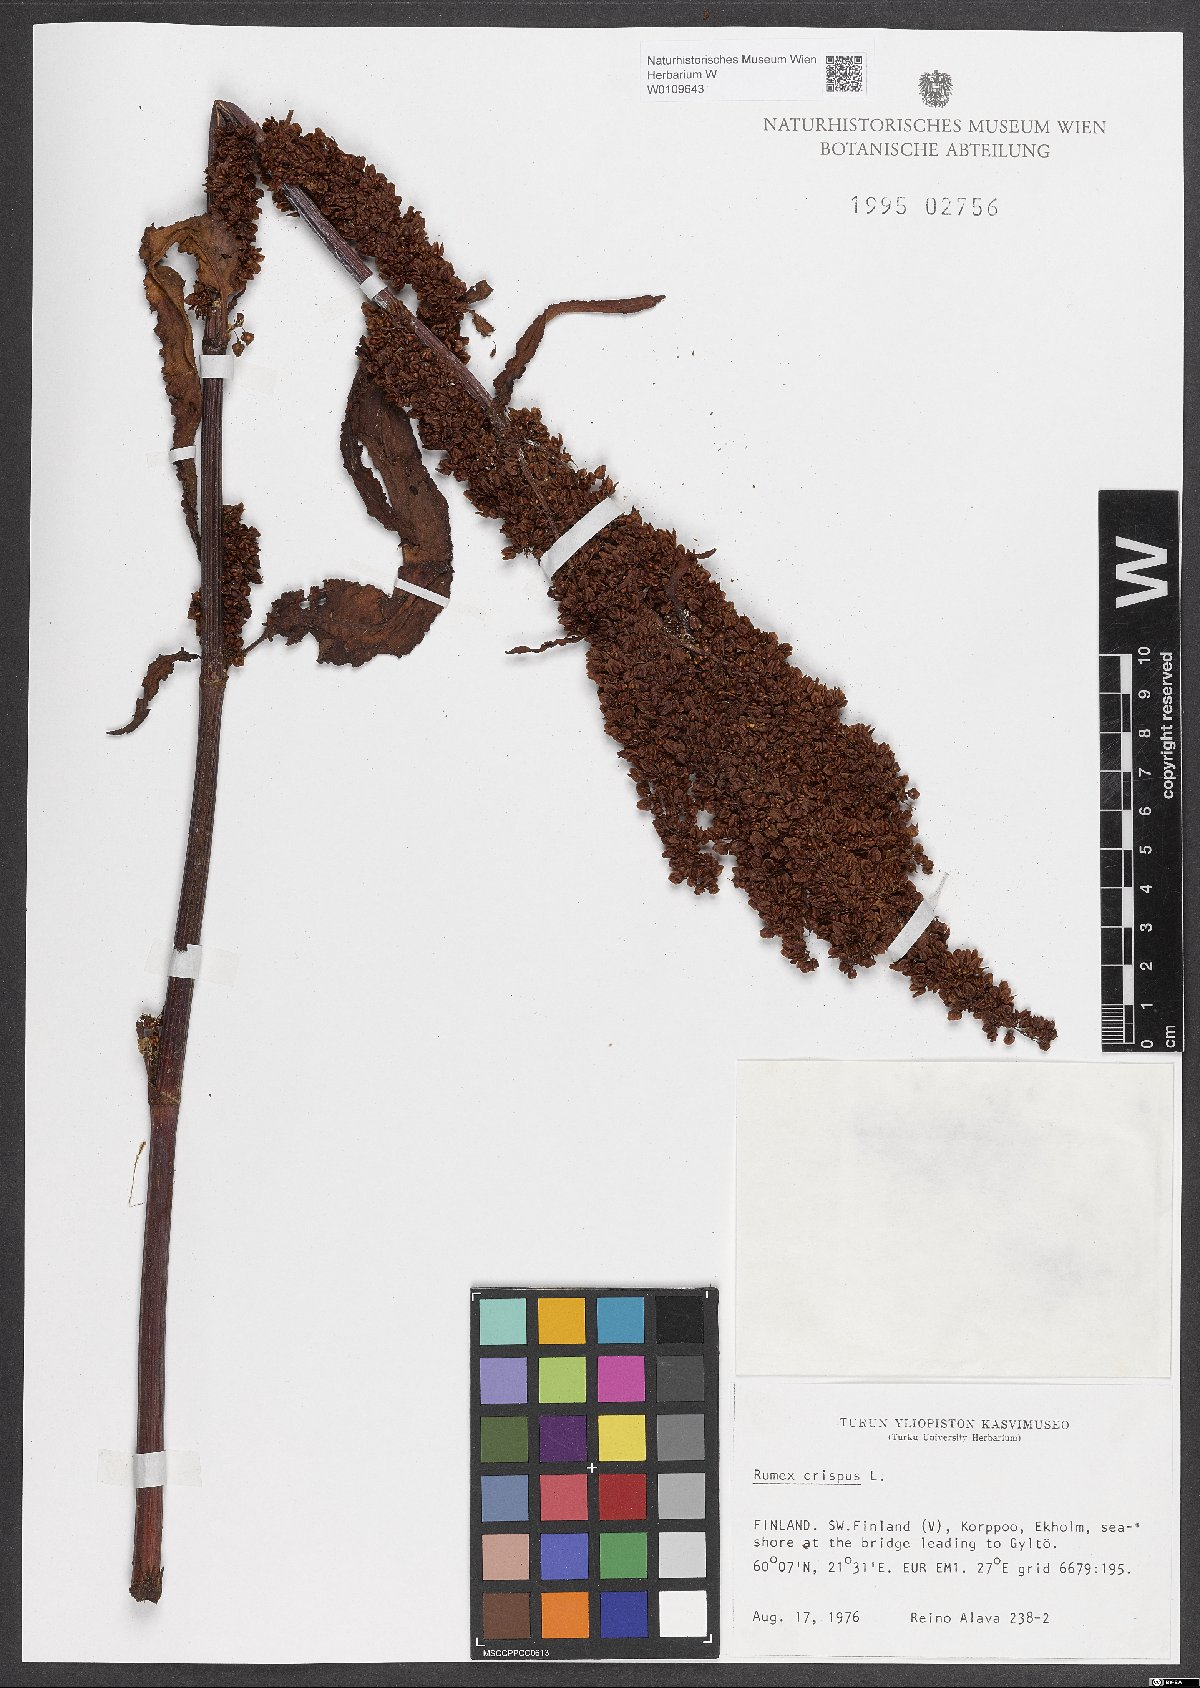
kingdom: Plantae
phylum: Tracheophyta
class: Magnoliopsida
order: Caryophyllales
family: Polygonaceae
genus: Rumex
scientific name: Rumex crispus
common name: Curled dock
